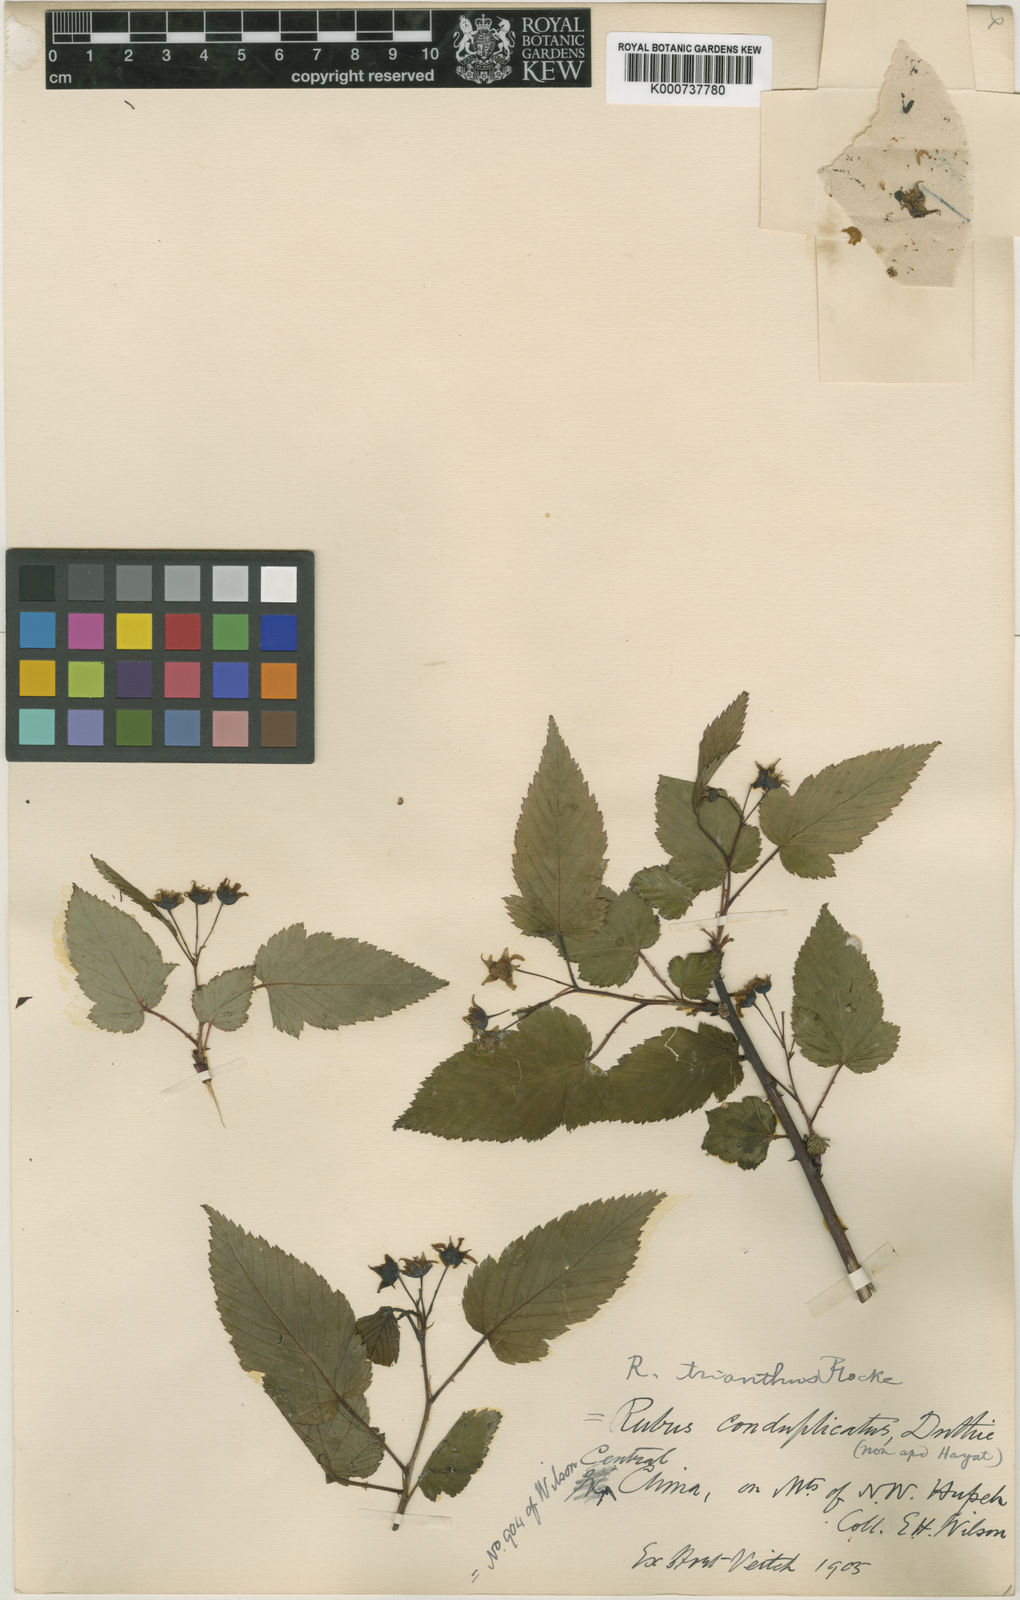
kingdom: Plantae
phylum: Tracheophyta
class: Magnoliopsida
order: Rosales
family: Rosaceae
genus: Rubus
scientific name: Rubus subcrataegifolius
